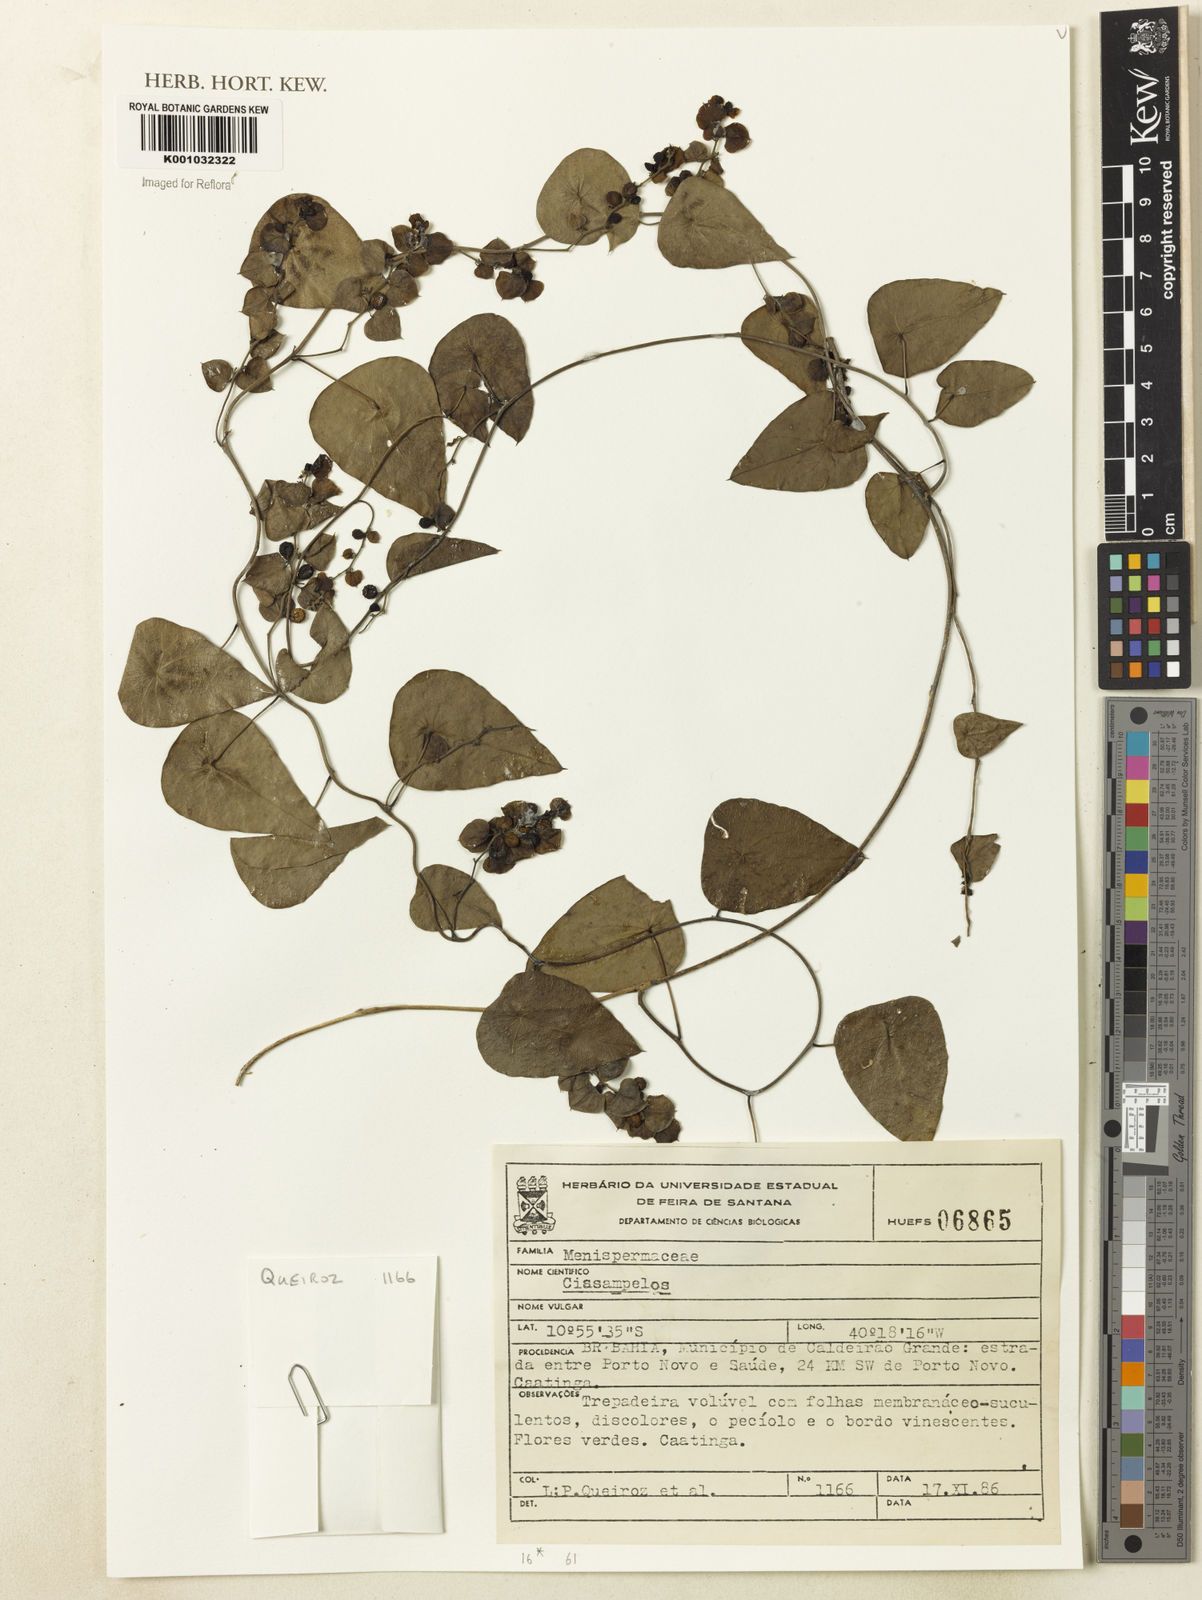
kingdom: Plantae
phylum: Tracheophyta
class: Magnoliopsida
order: Ranunculales
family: Menispermaceae
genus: Cissampelos
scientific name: Cissampelos
